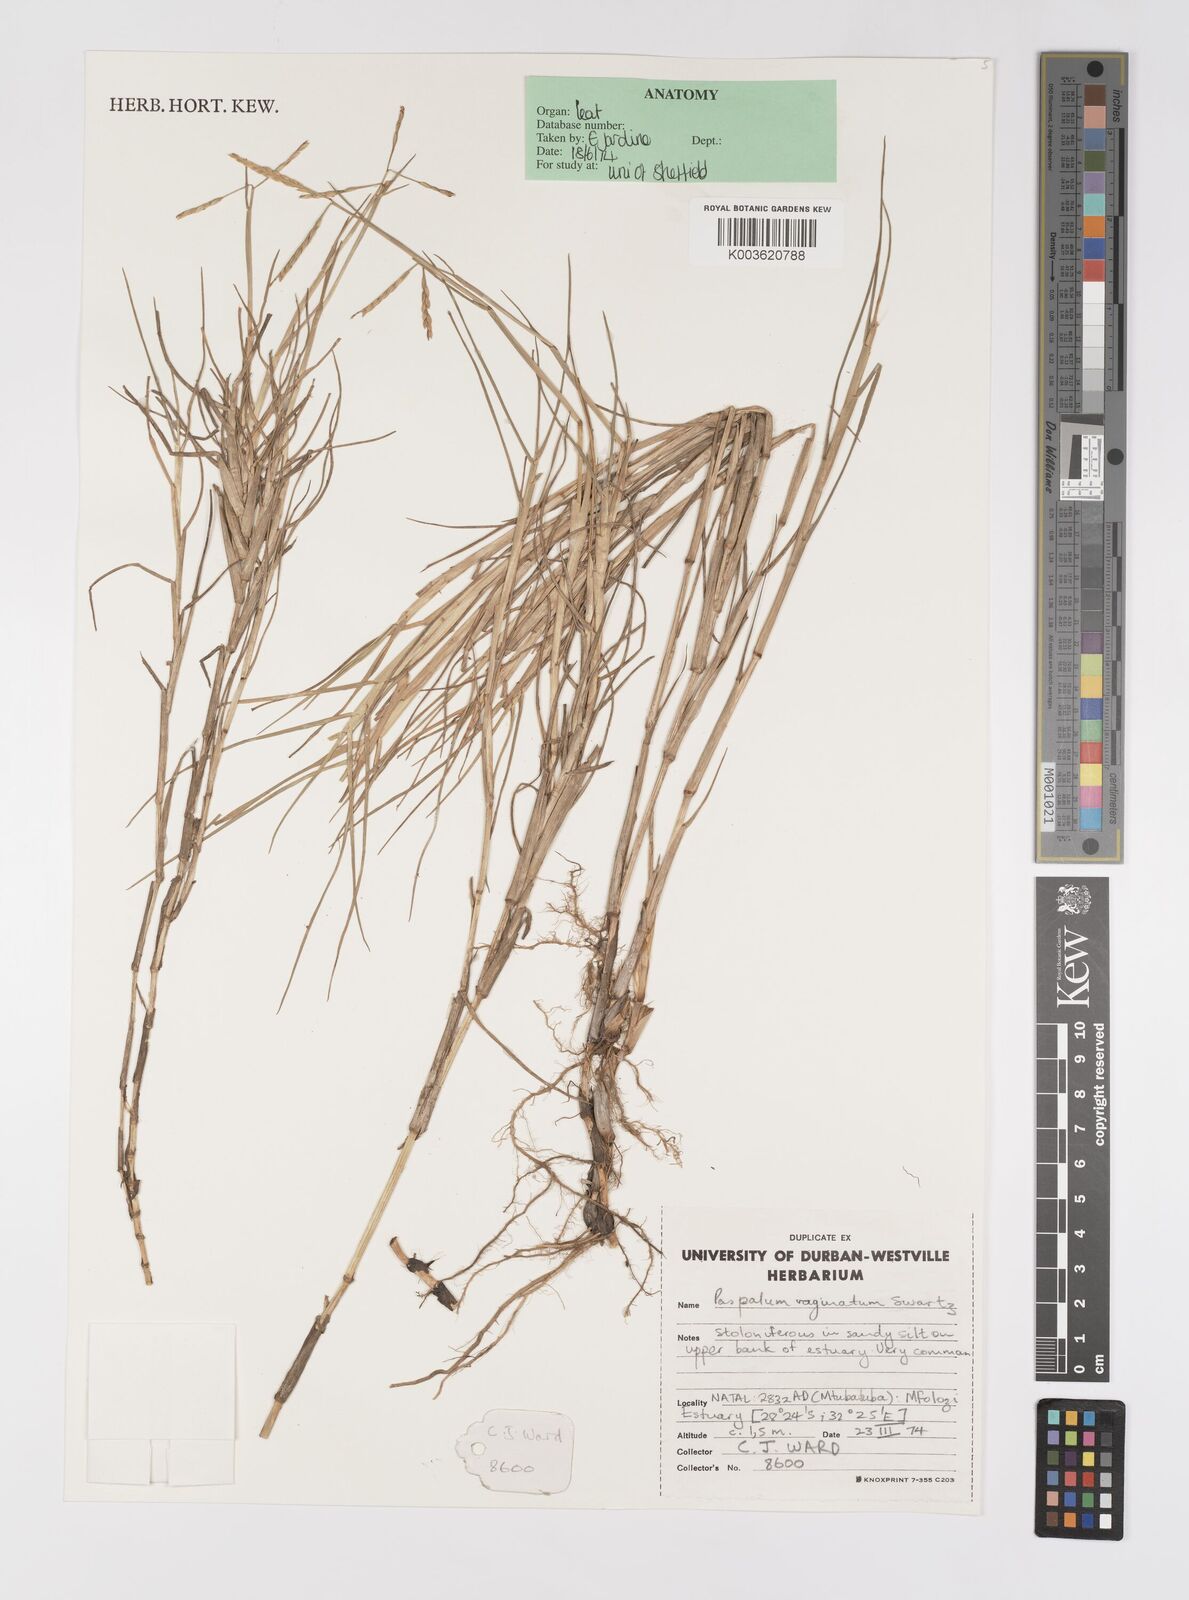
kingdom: Plantae
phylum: Tracheophyta
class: Liliopsida
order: Poales
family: Poaceae
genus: Paspalum
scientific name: Paspalum distichum
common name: Knotgrass
